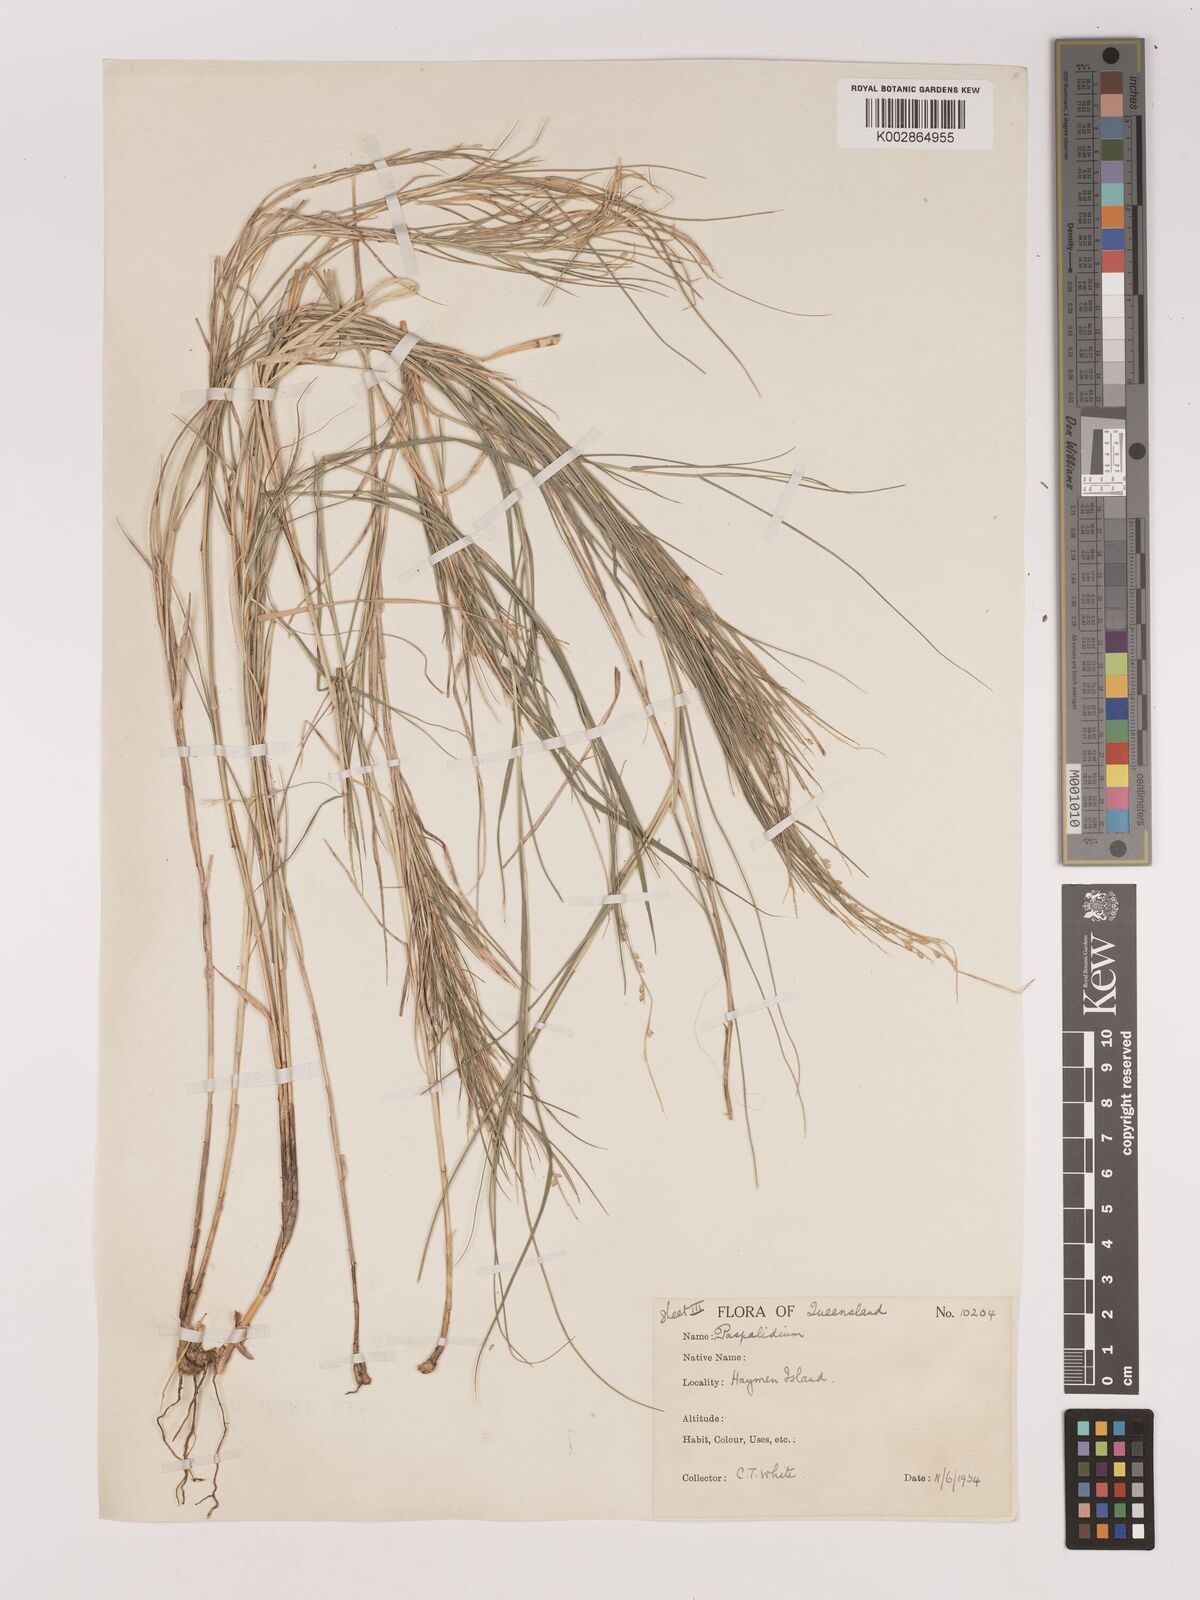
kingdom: Plantae
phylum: Tracheophyta
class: Liliopsida
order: Poales
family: Poaceae
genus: Setaria
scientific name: Setaria
